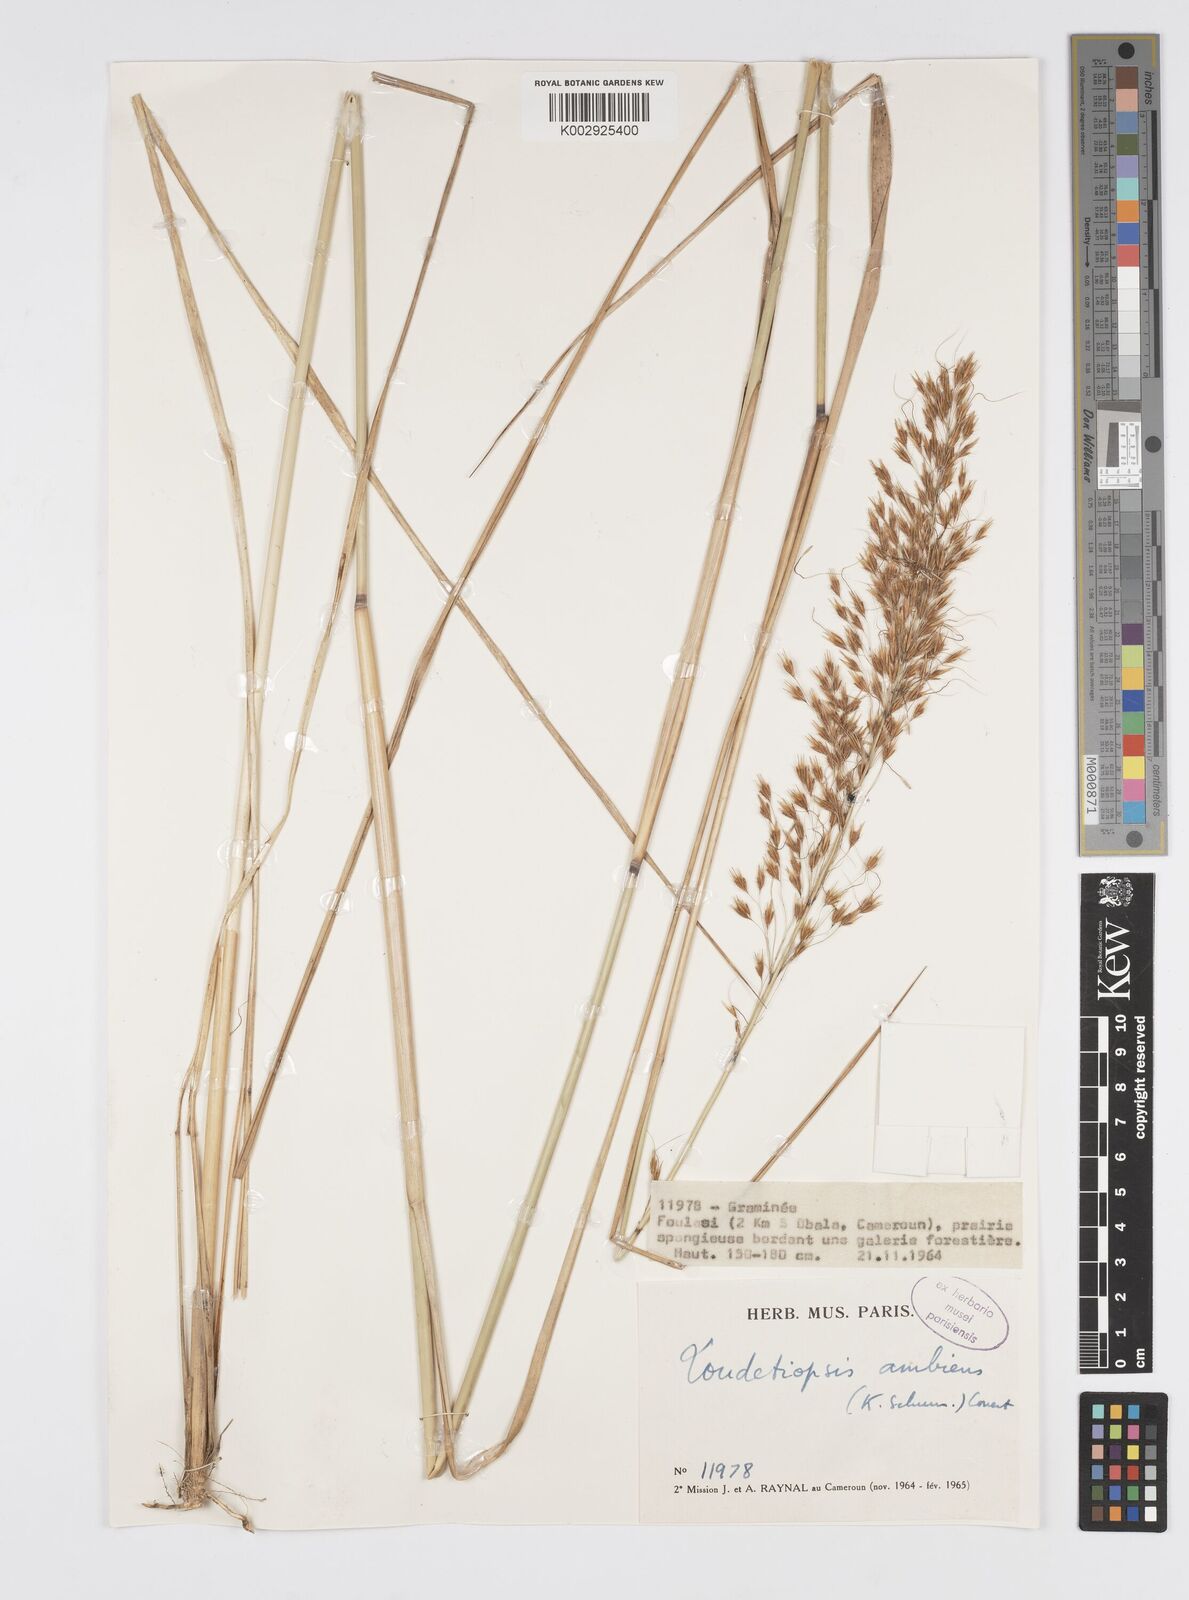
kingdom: Plantae
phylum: Tracheophyta
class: Liliopsida
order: Poales
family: Poaceae
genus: Loudetiopsis
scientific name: Loudetiopsis ambiens
